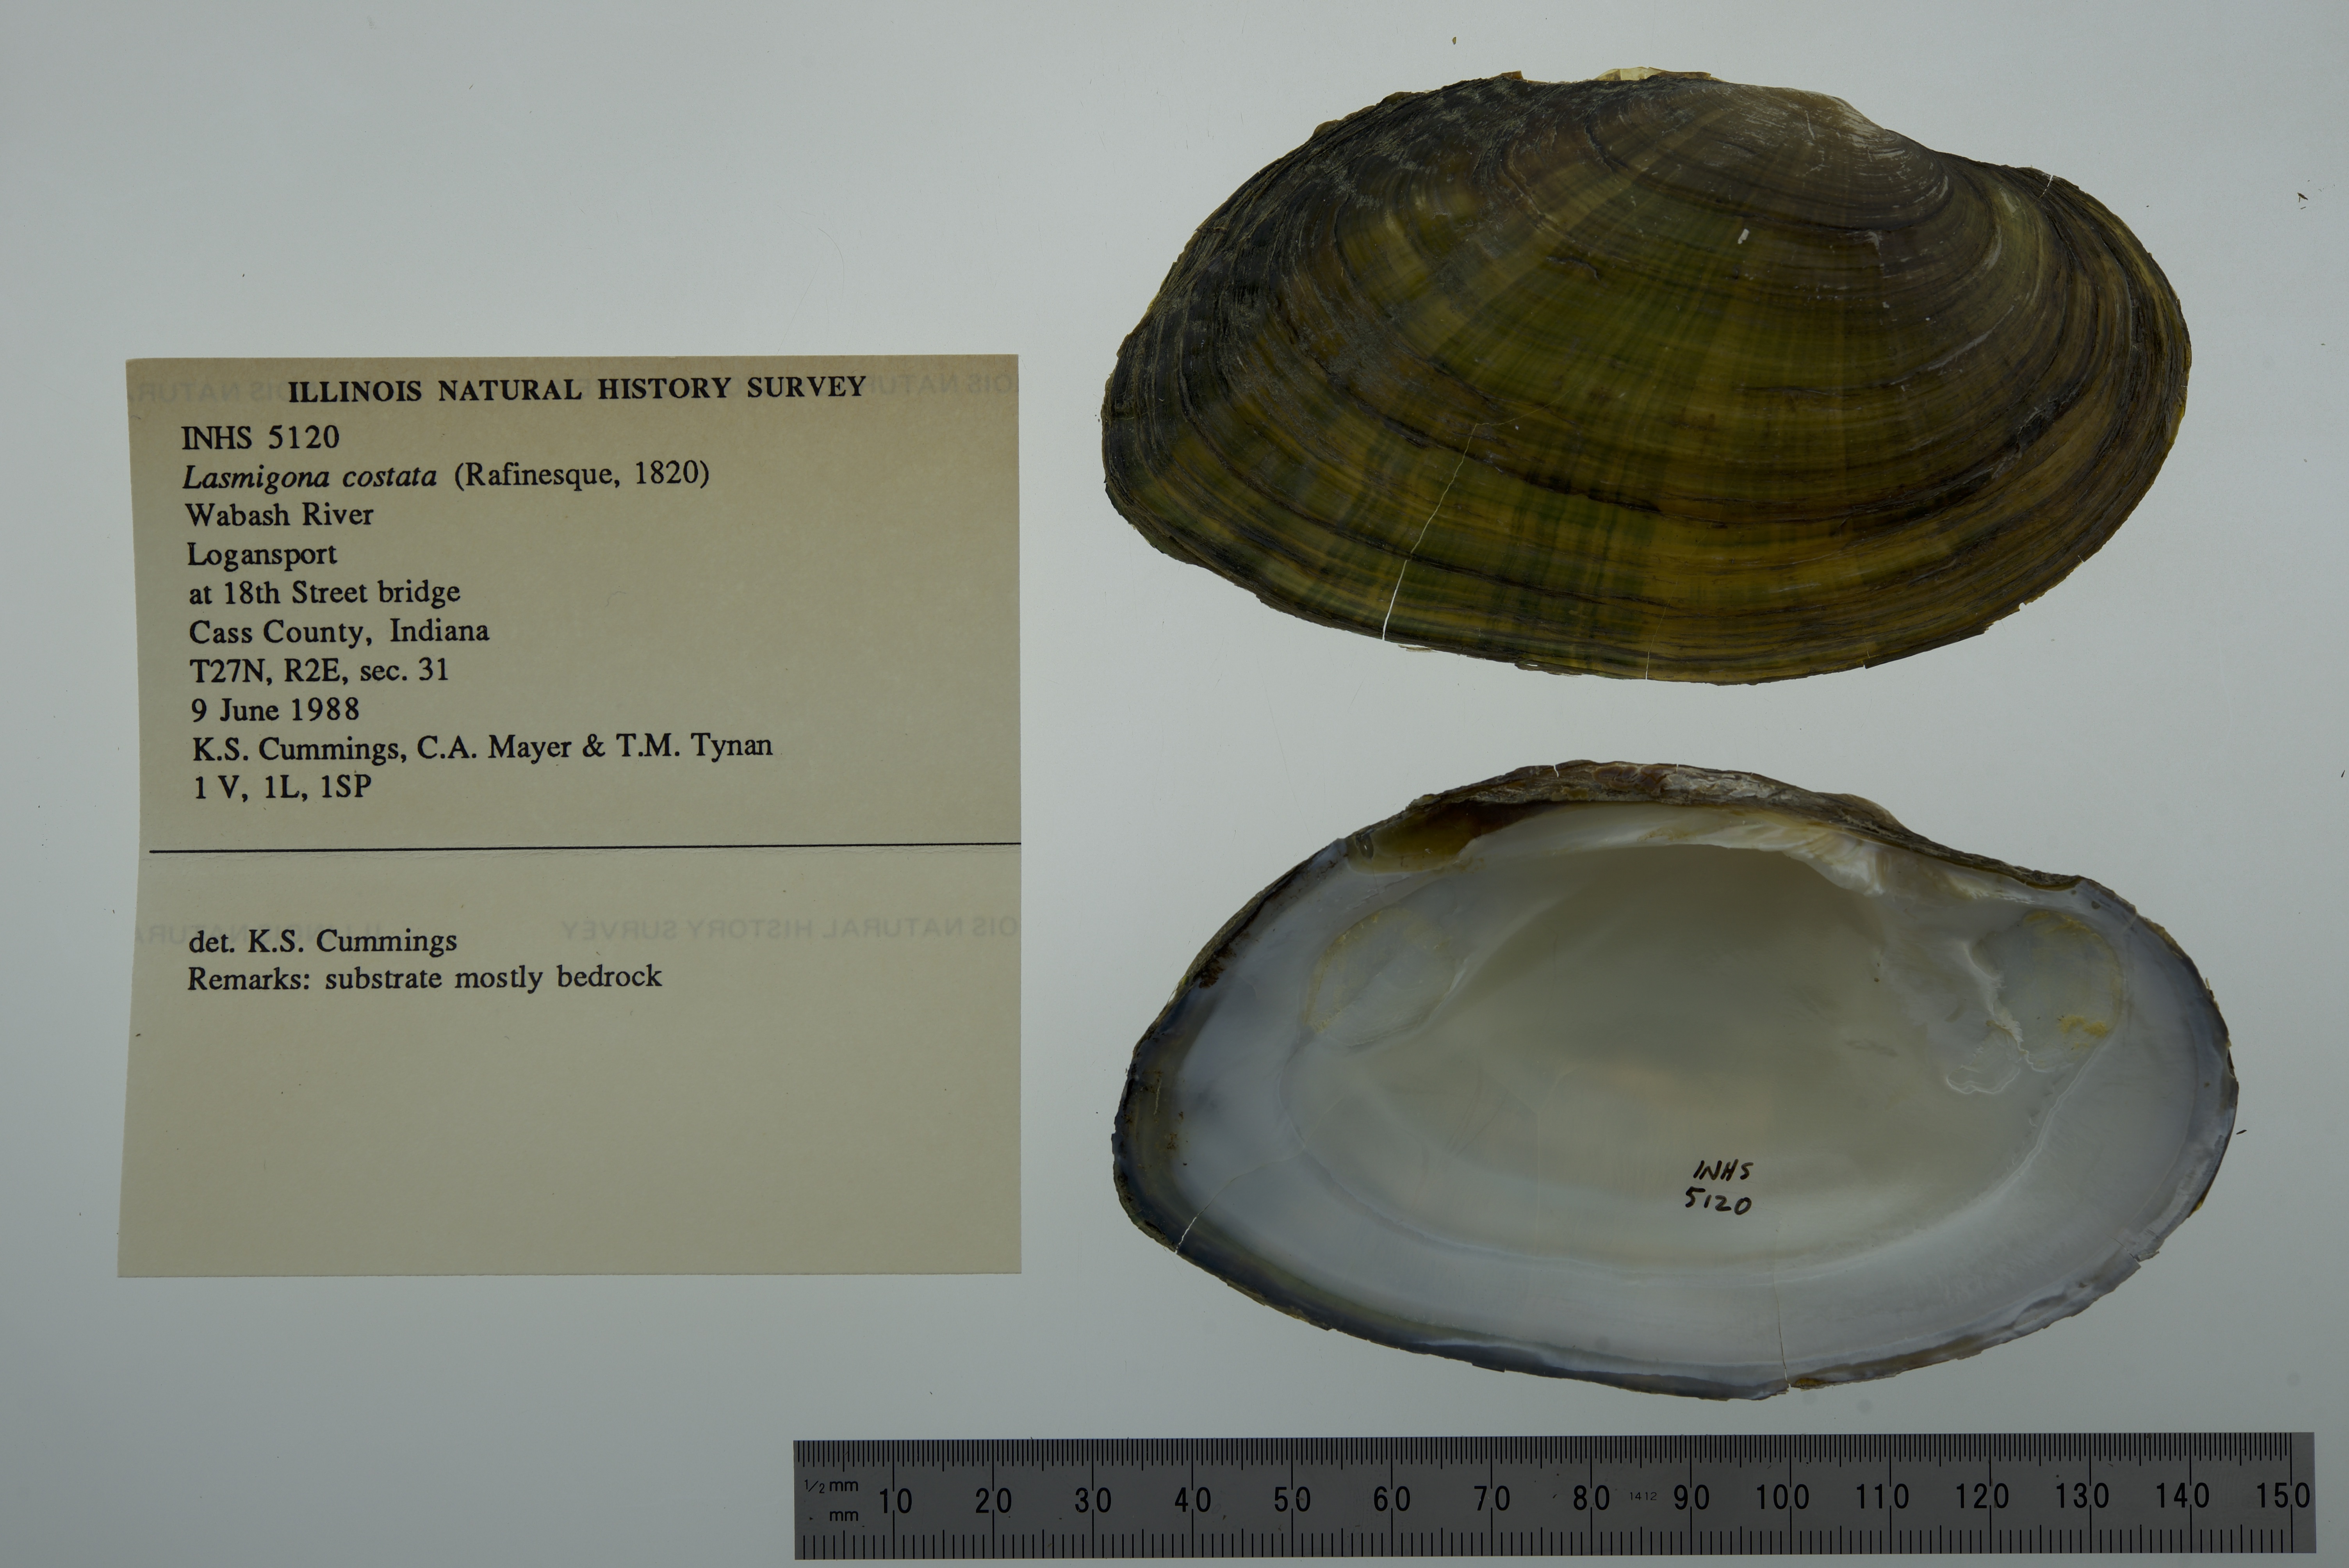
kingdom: Animalia
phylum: Mollusca
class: Bivalvia
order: Unionida
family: Unionidae
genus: Lasmigona
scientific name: Lasmigona costata
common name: Flutedshell
